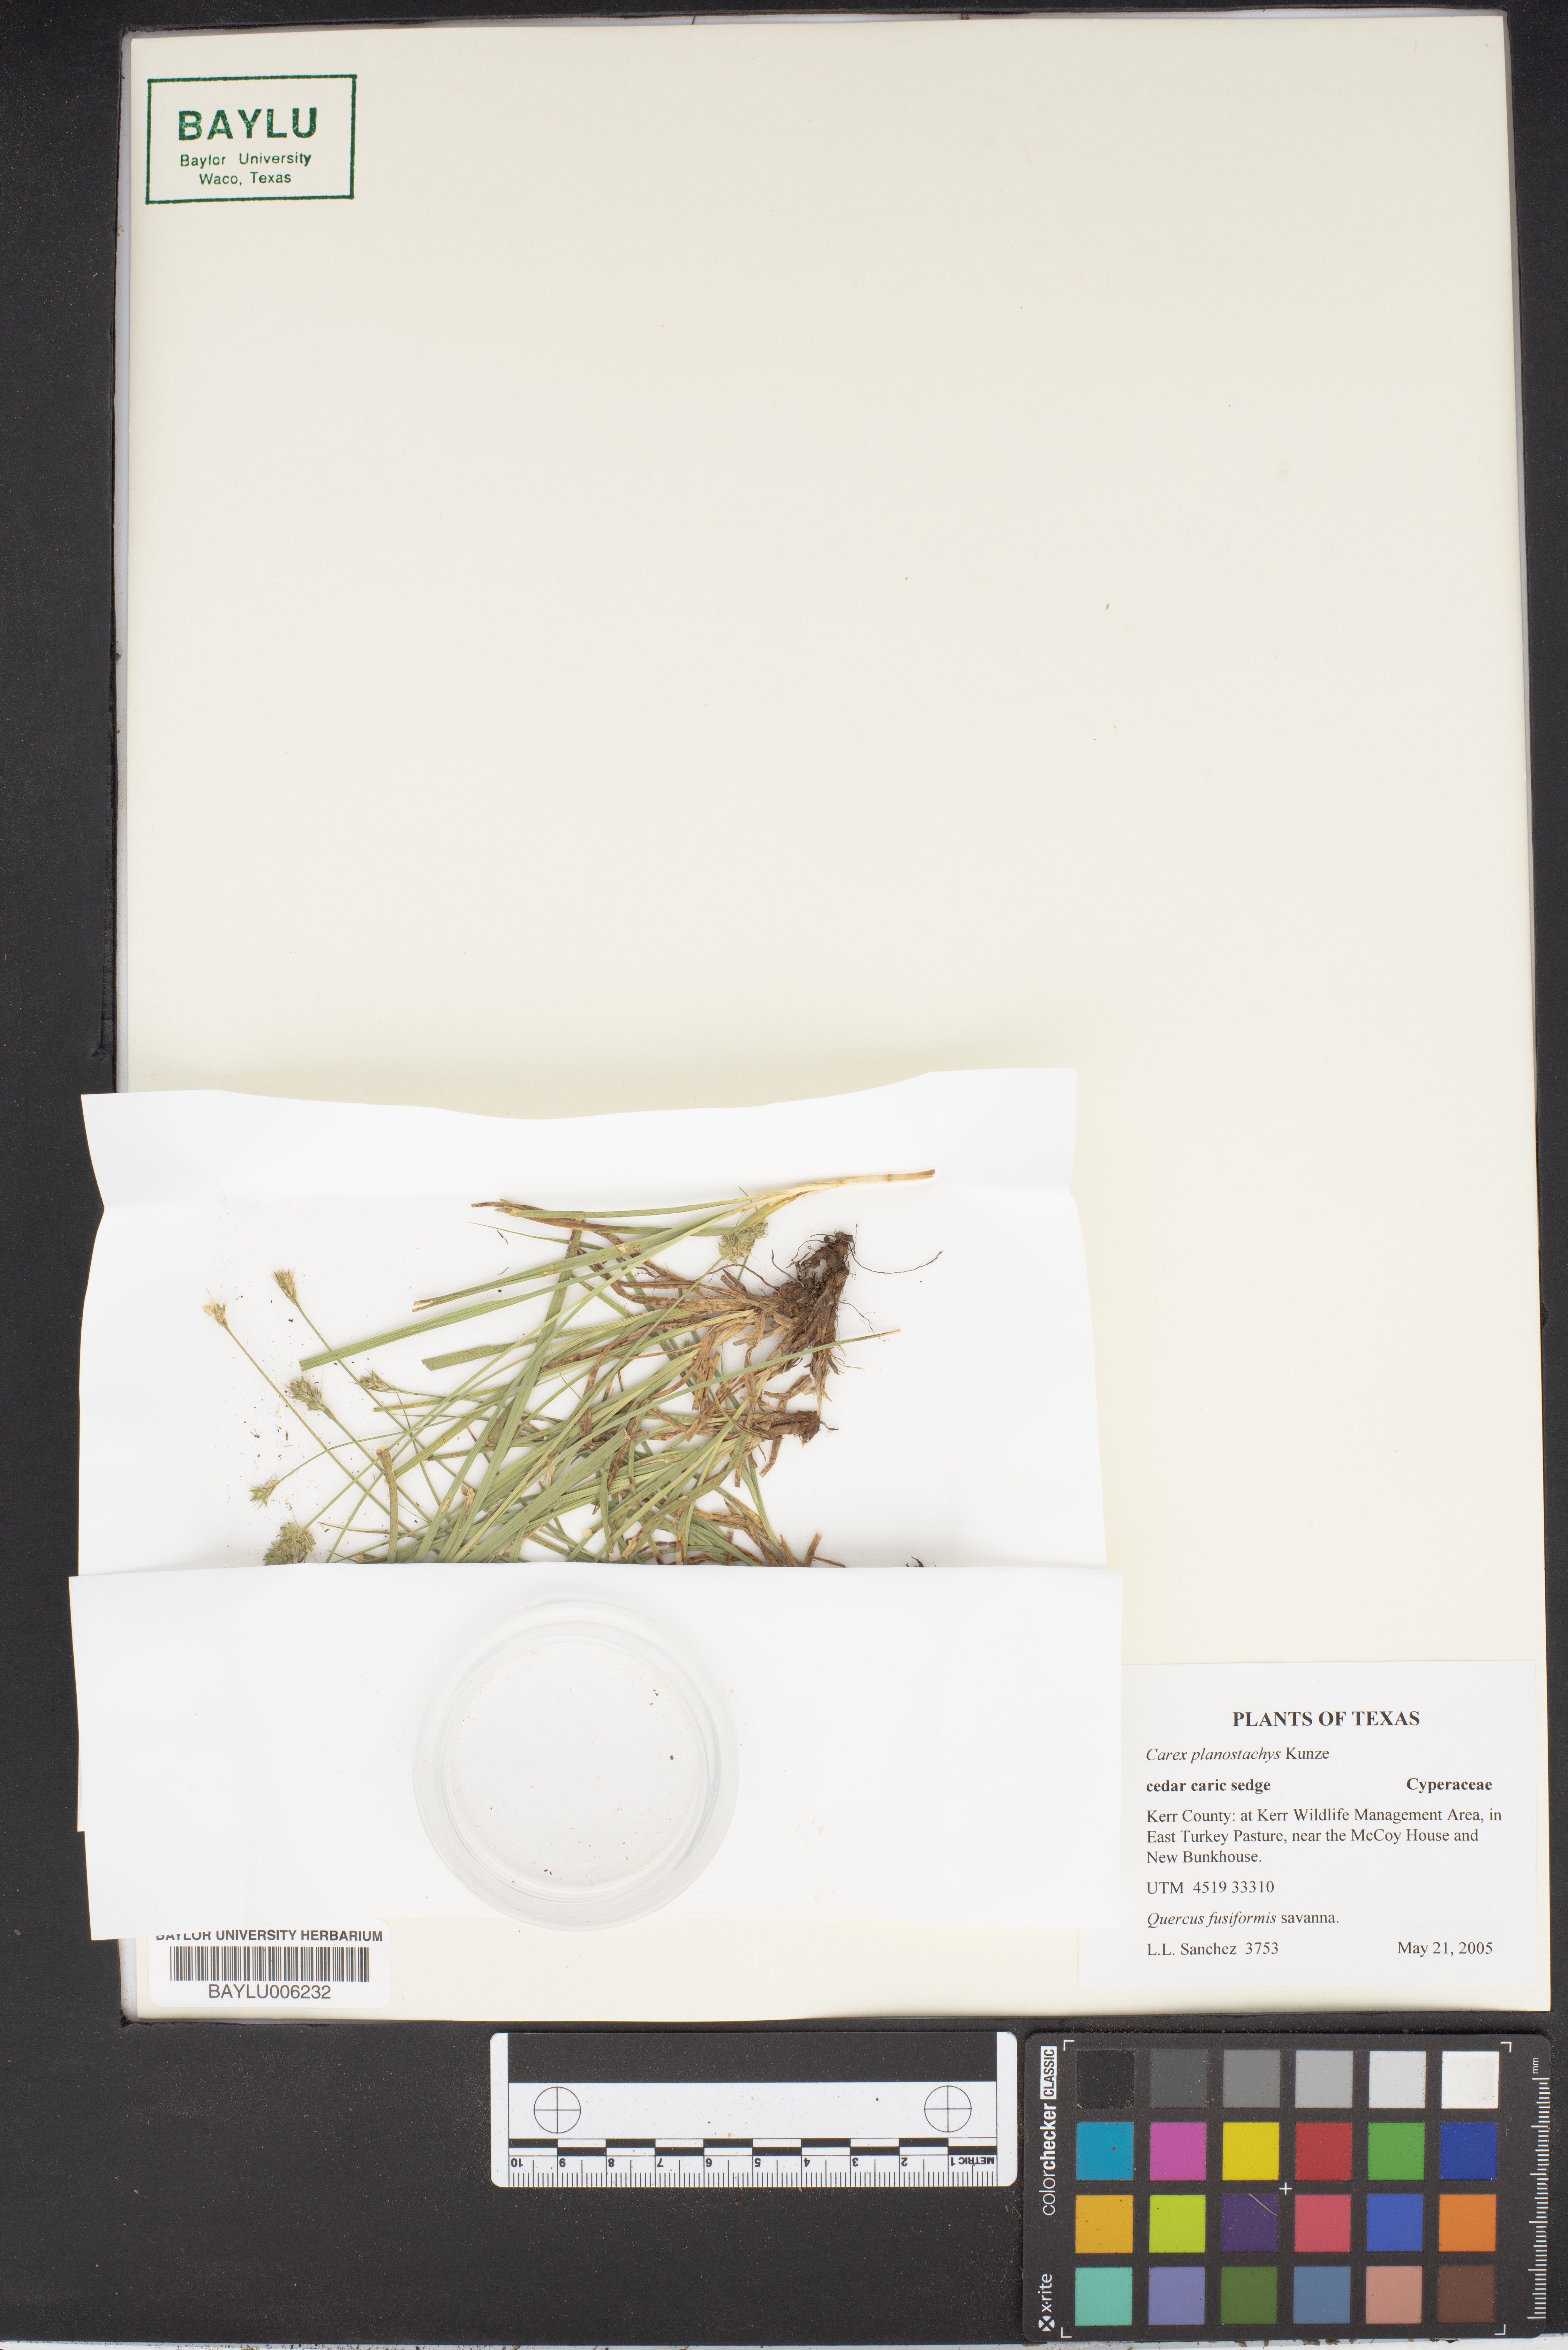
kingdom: Plantae
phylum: Tracheophyta
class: Liliopsida
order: Poales
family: Cyperaceae
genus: Carex
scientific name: Carex planostachys
